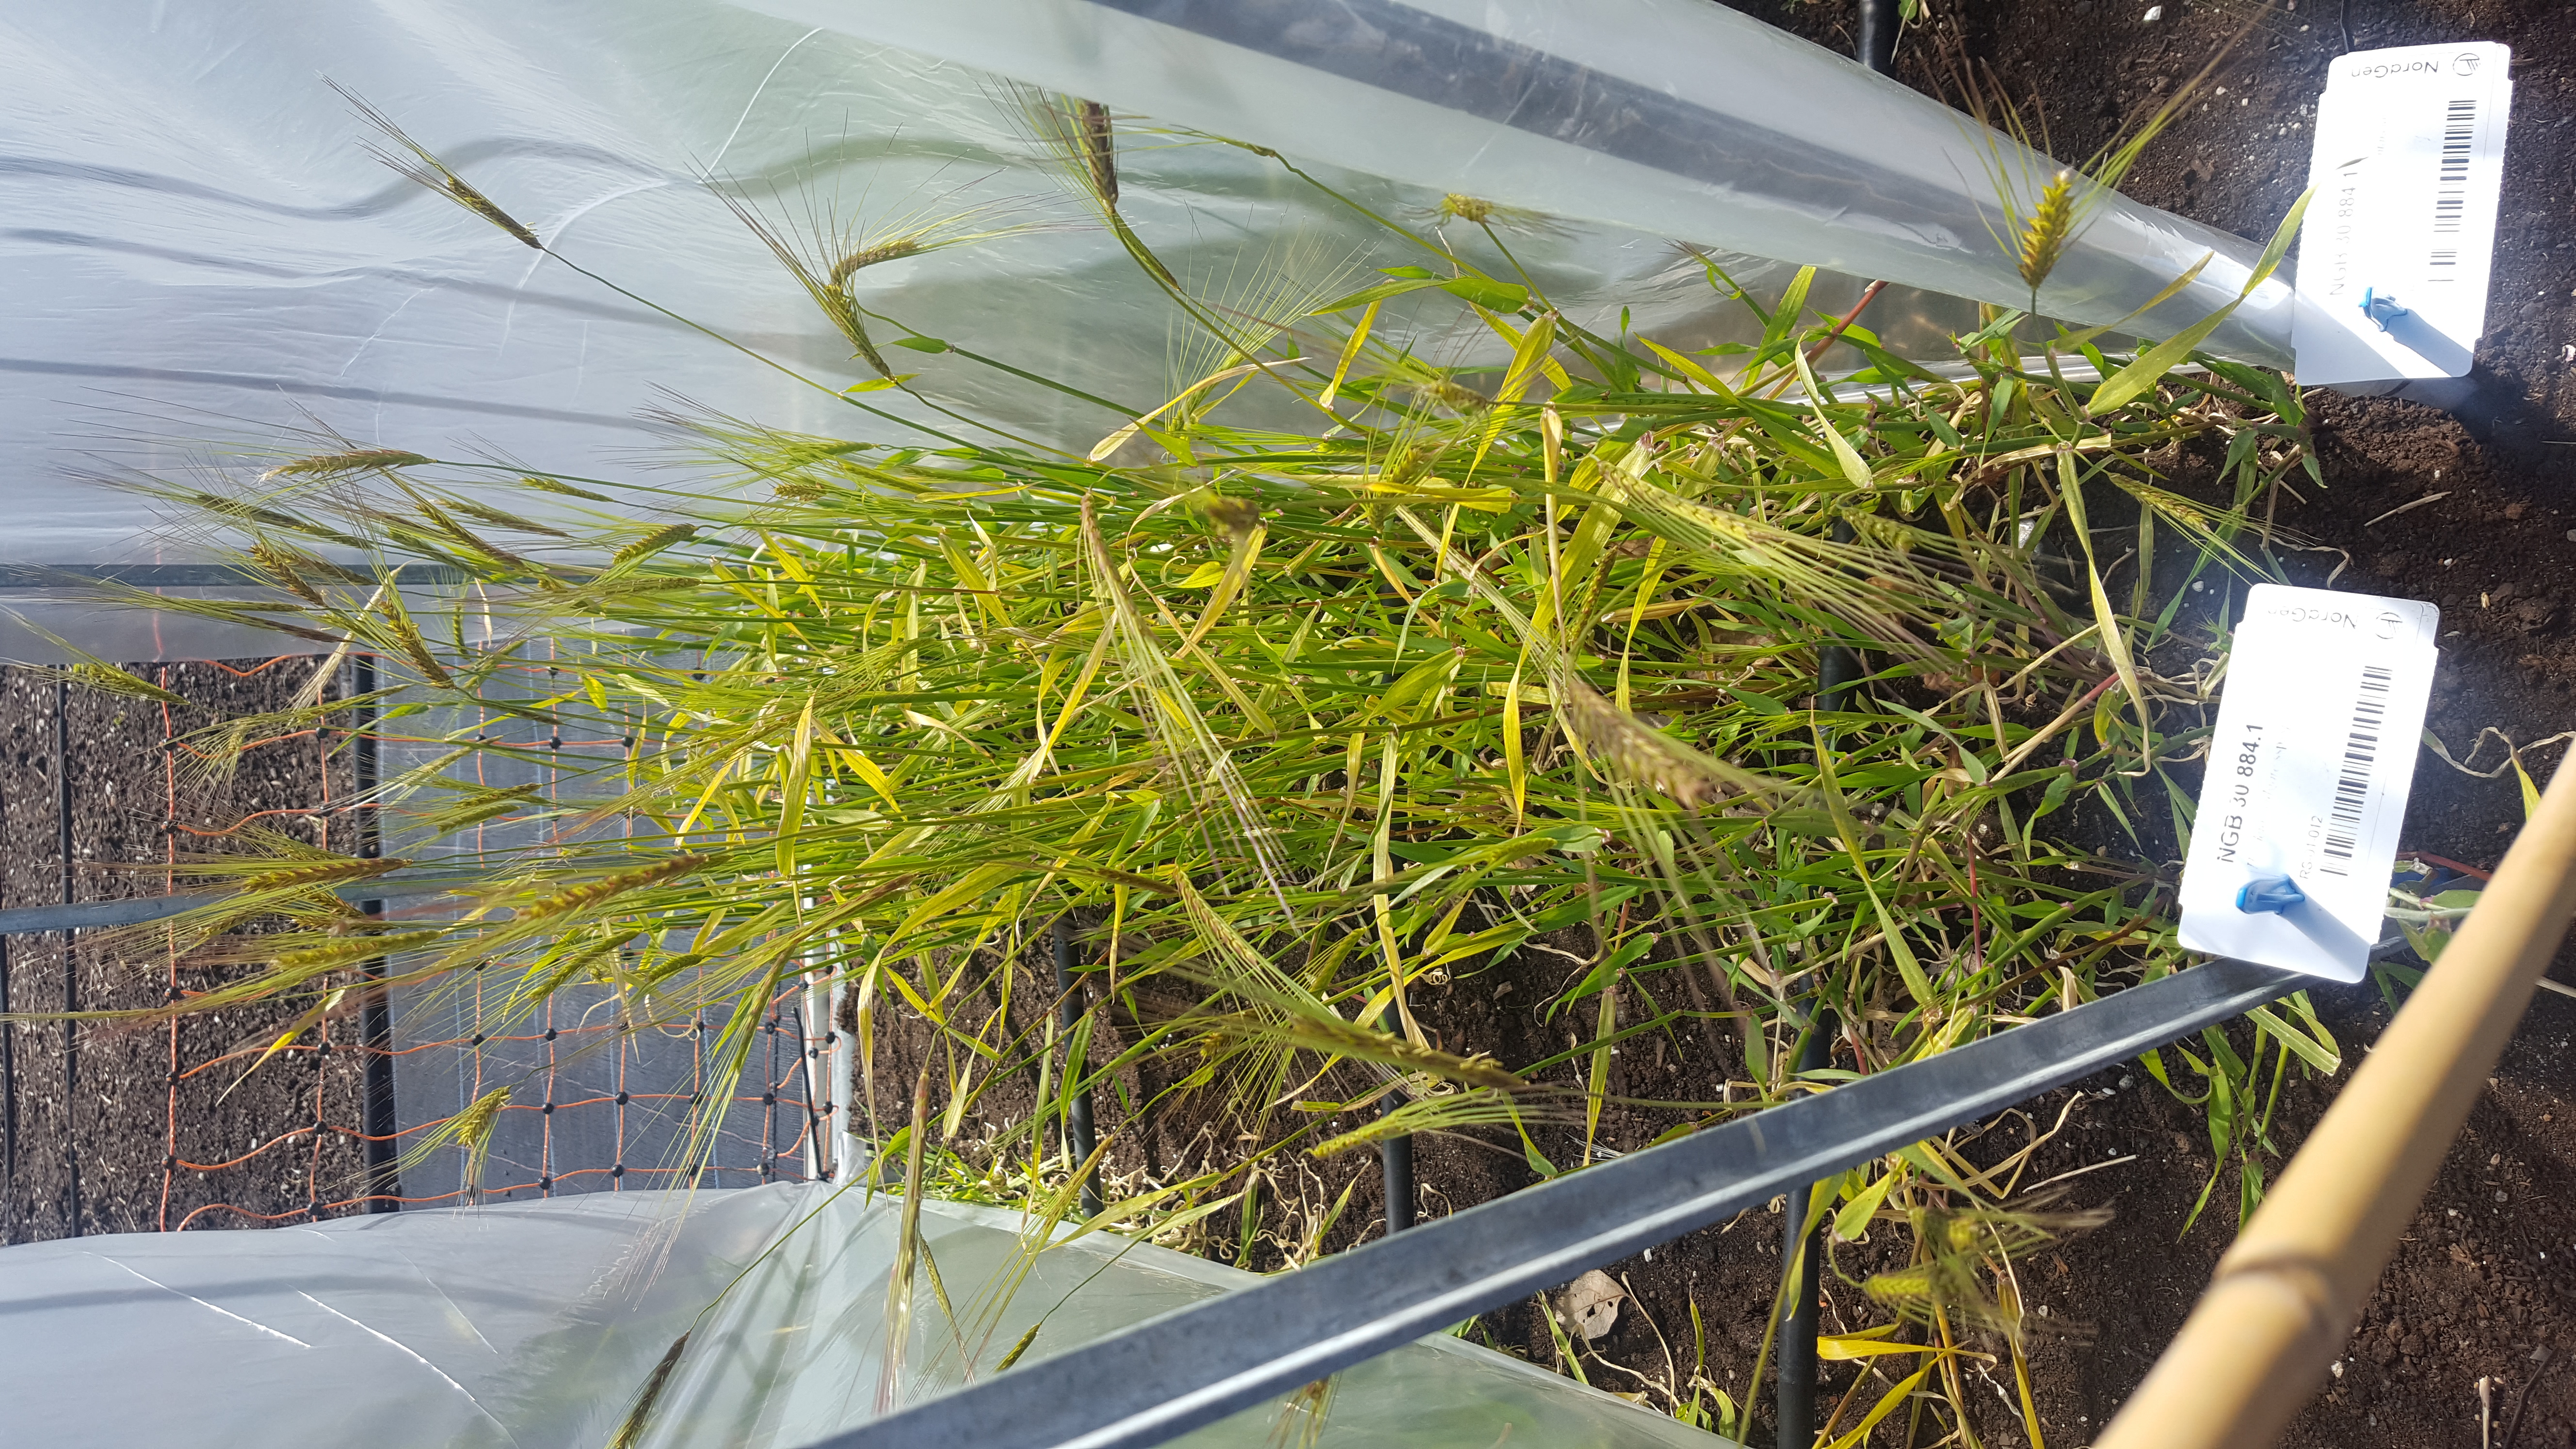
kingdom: Plantae
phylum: Tracheophyta
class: Liliopsida
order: Poales
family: Poaceae
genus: Hordeum
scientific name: Hordeum spontaneum
